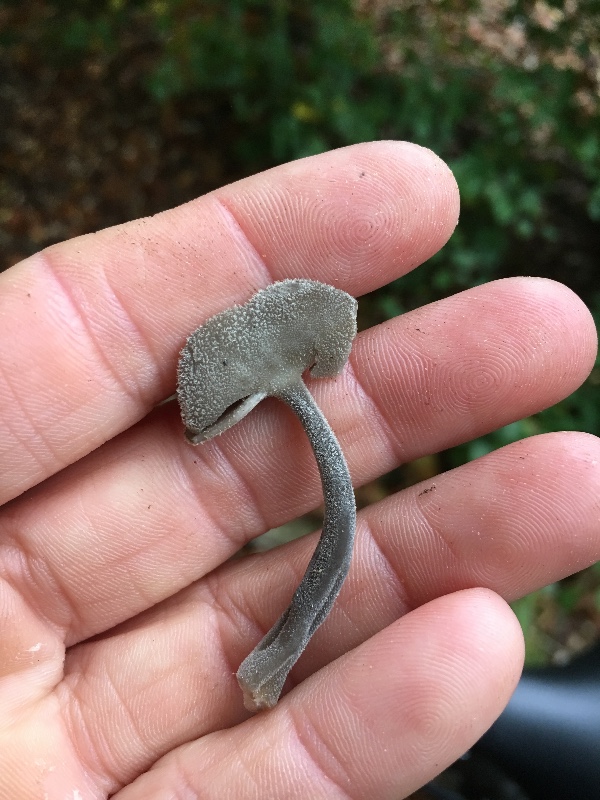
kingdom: Fungi
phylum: Ascomycota
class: Pezizomycetes
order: Pezizales
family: Helvellaceae
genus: Helvella
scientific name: Helvella macropus
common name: højstokket foldhat
